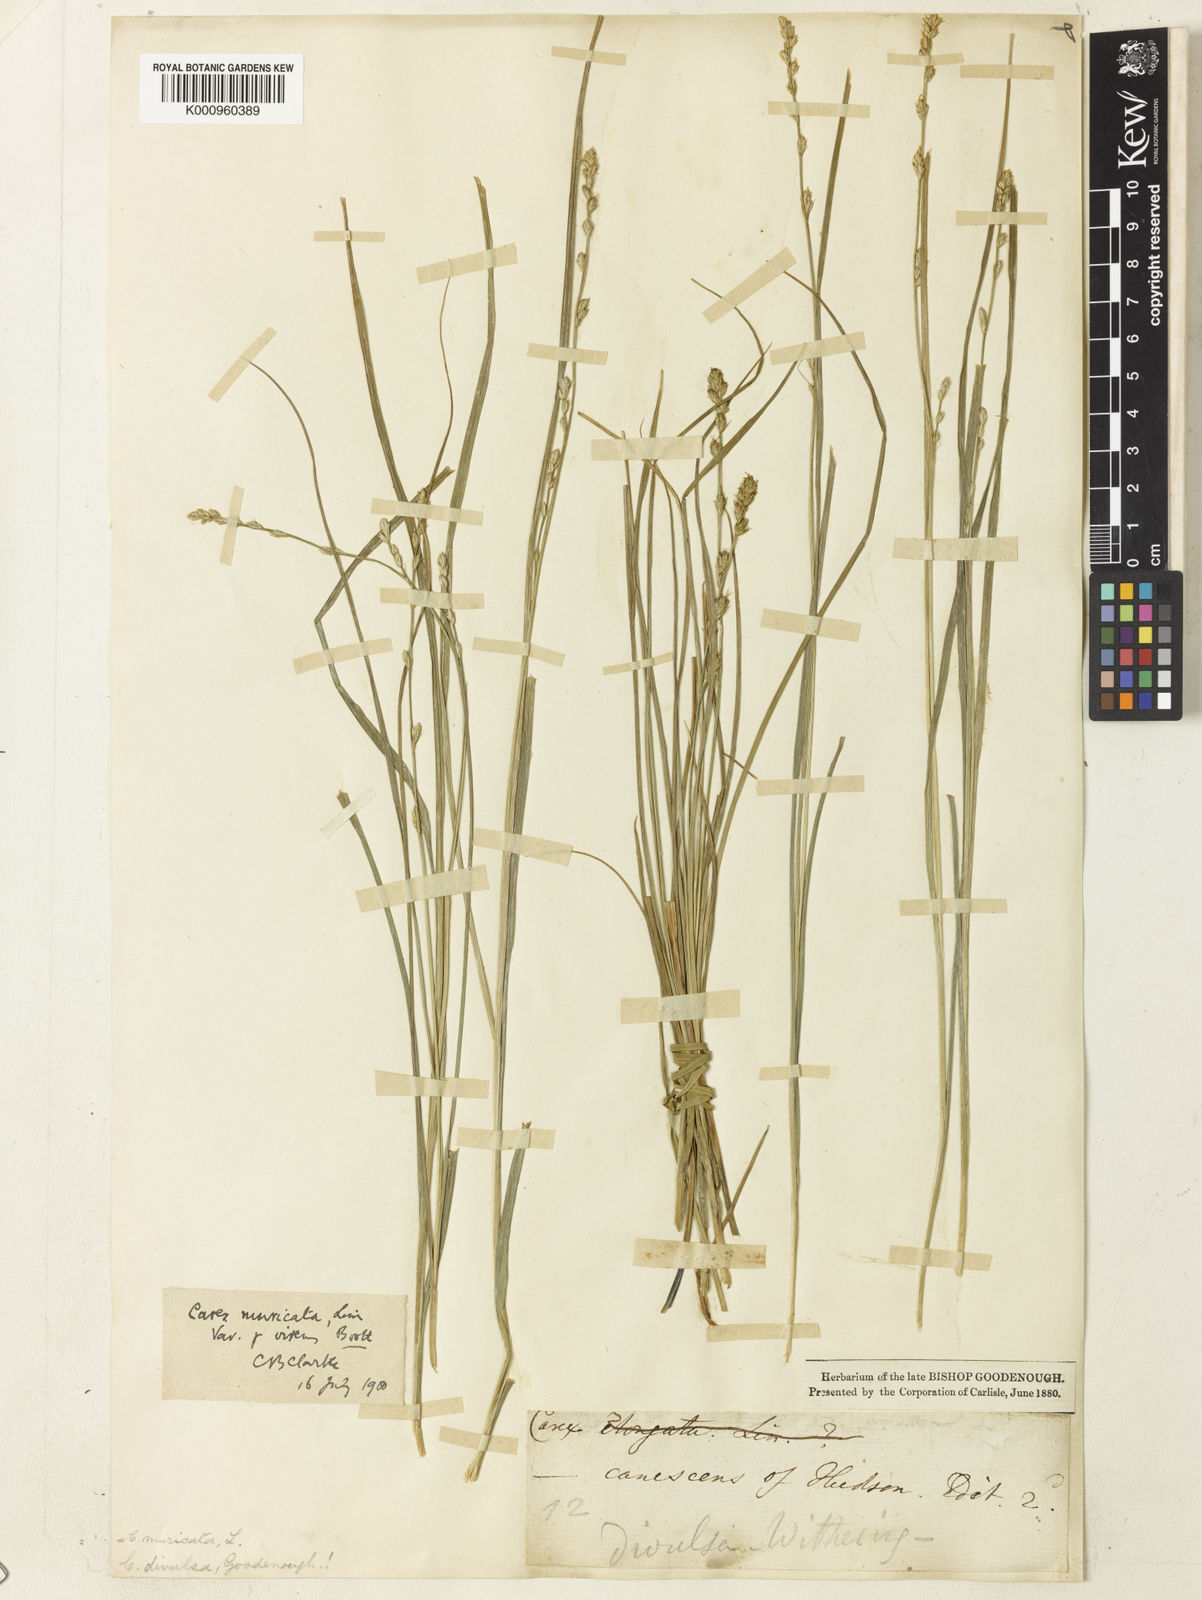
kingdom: Plantae
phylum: Tracheophyta
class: Liliopsida
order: Poales
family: Cyperaceae
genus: Carex
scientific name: Carex
